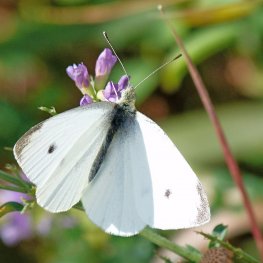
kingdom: Animalia
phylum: Arthropoda
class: Insecta
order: Lepidoptera
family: Pieridae
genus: Pieris
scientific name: Pieris rapae
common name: Cabbage White
